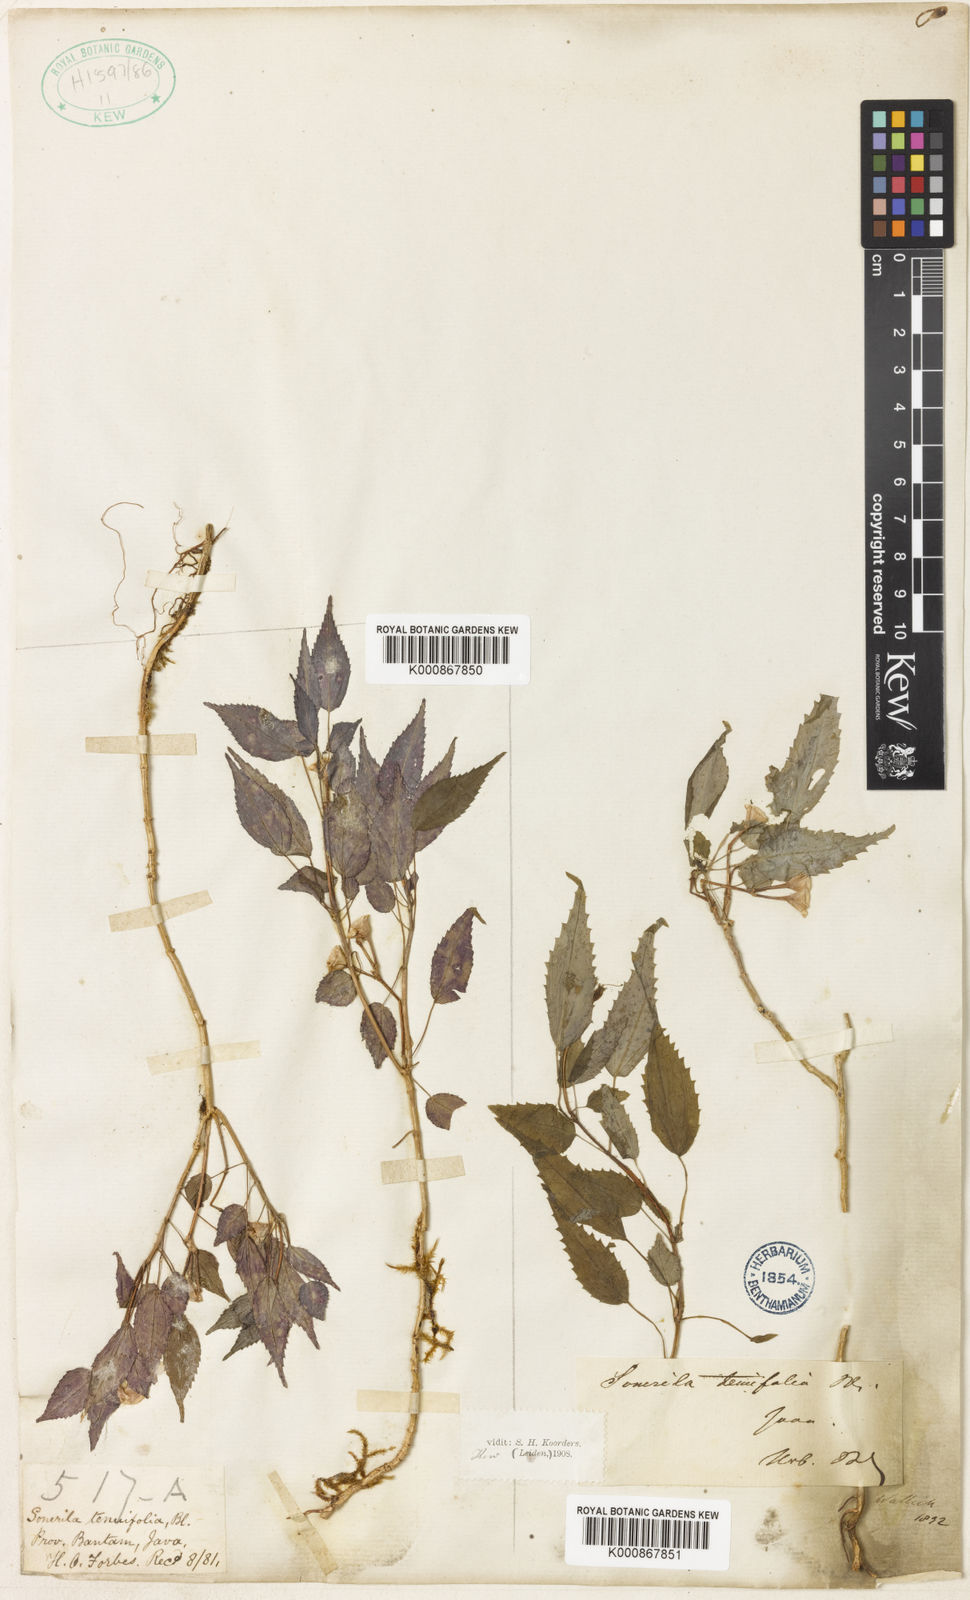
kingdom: Plantae
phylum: Tracheophyta
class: Magnoliopsida
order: Myrtales
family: Melastomataceae
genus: Sonerila
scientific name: Sonerila tenuifolia
